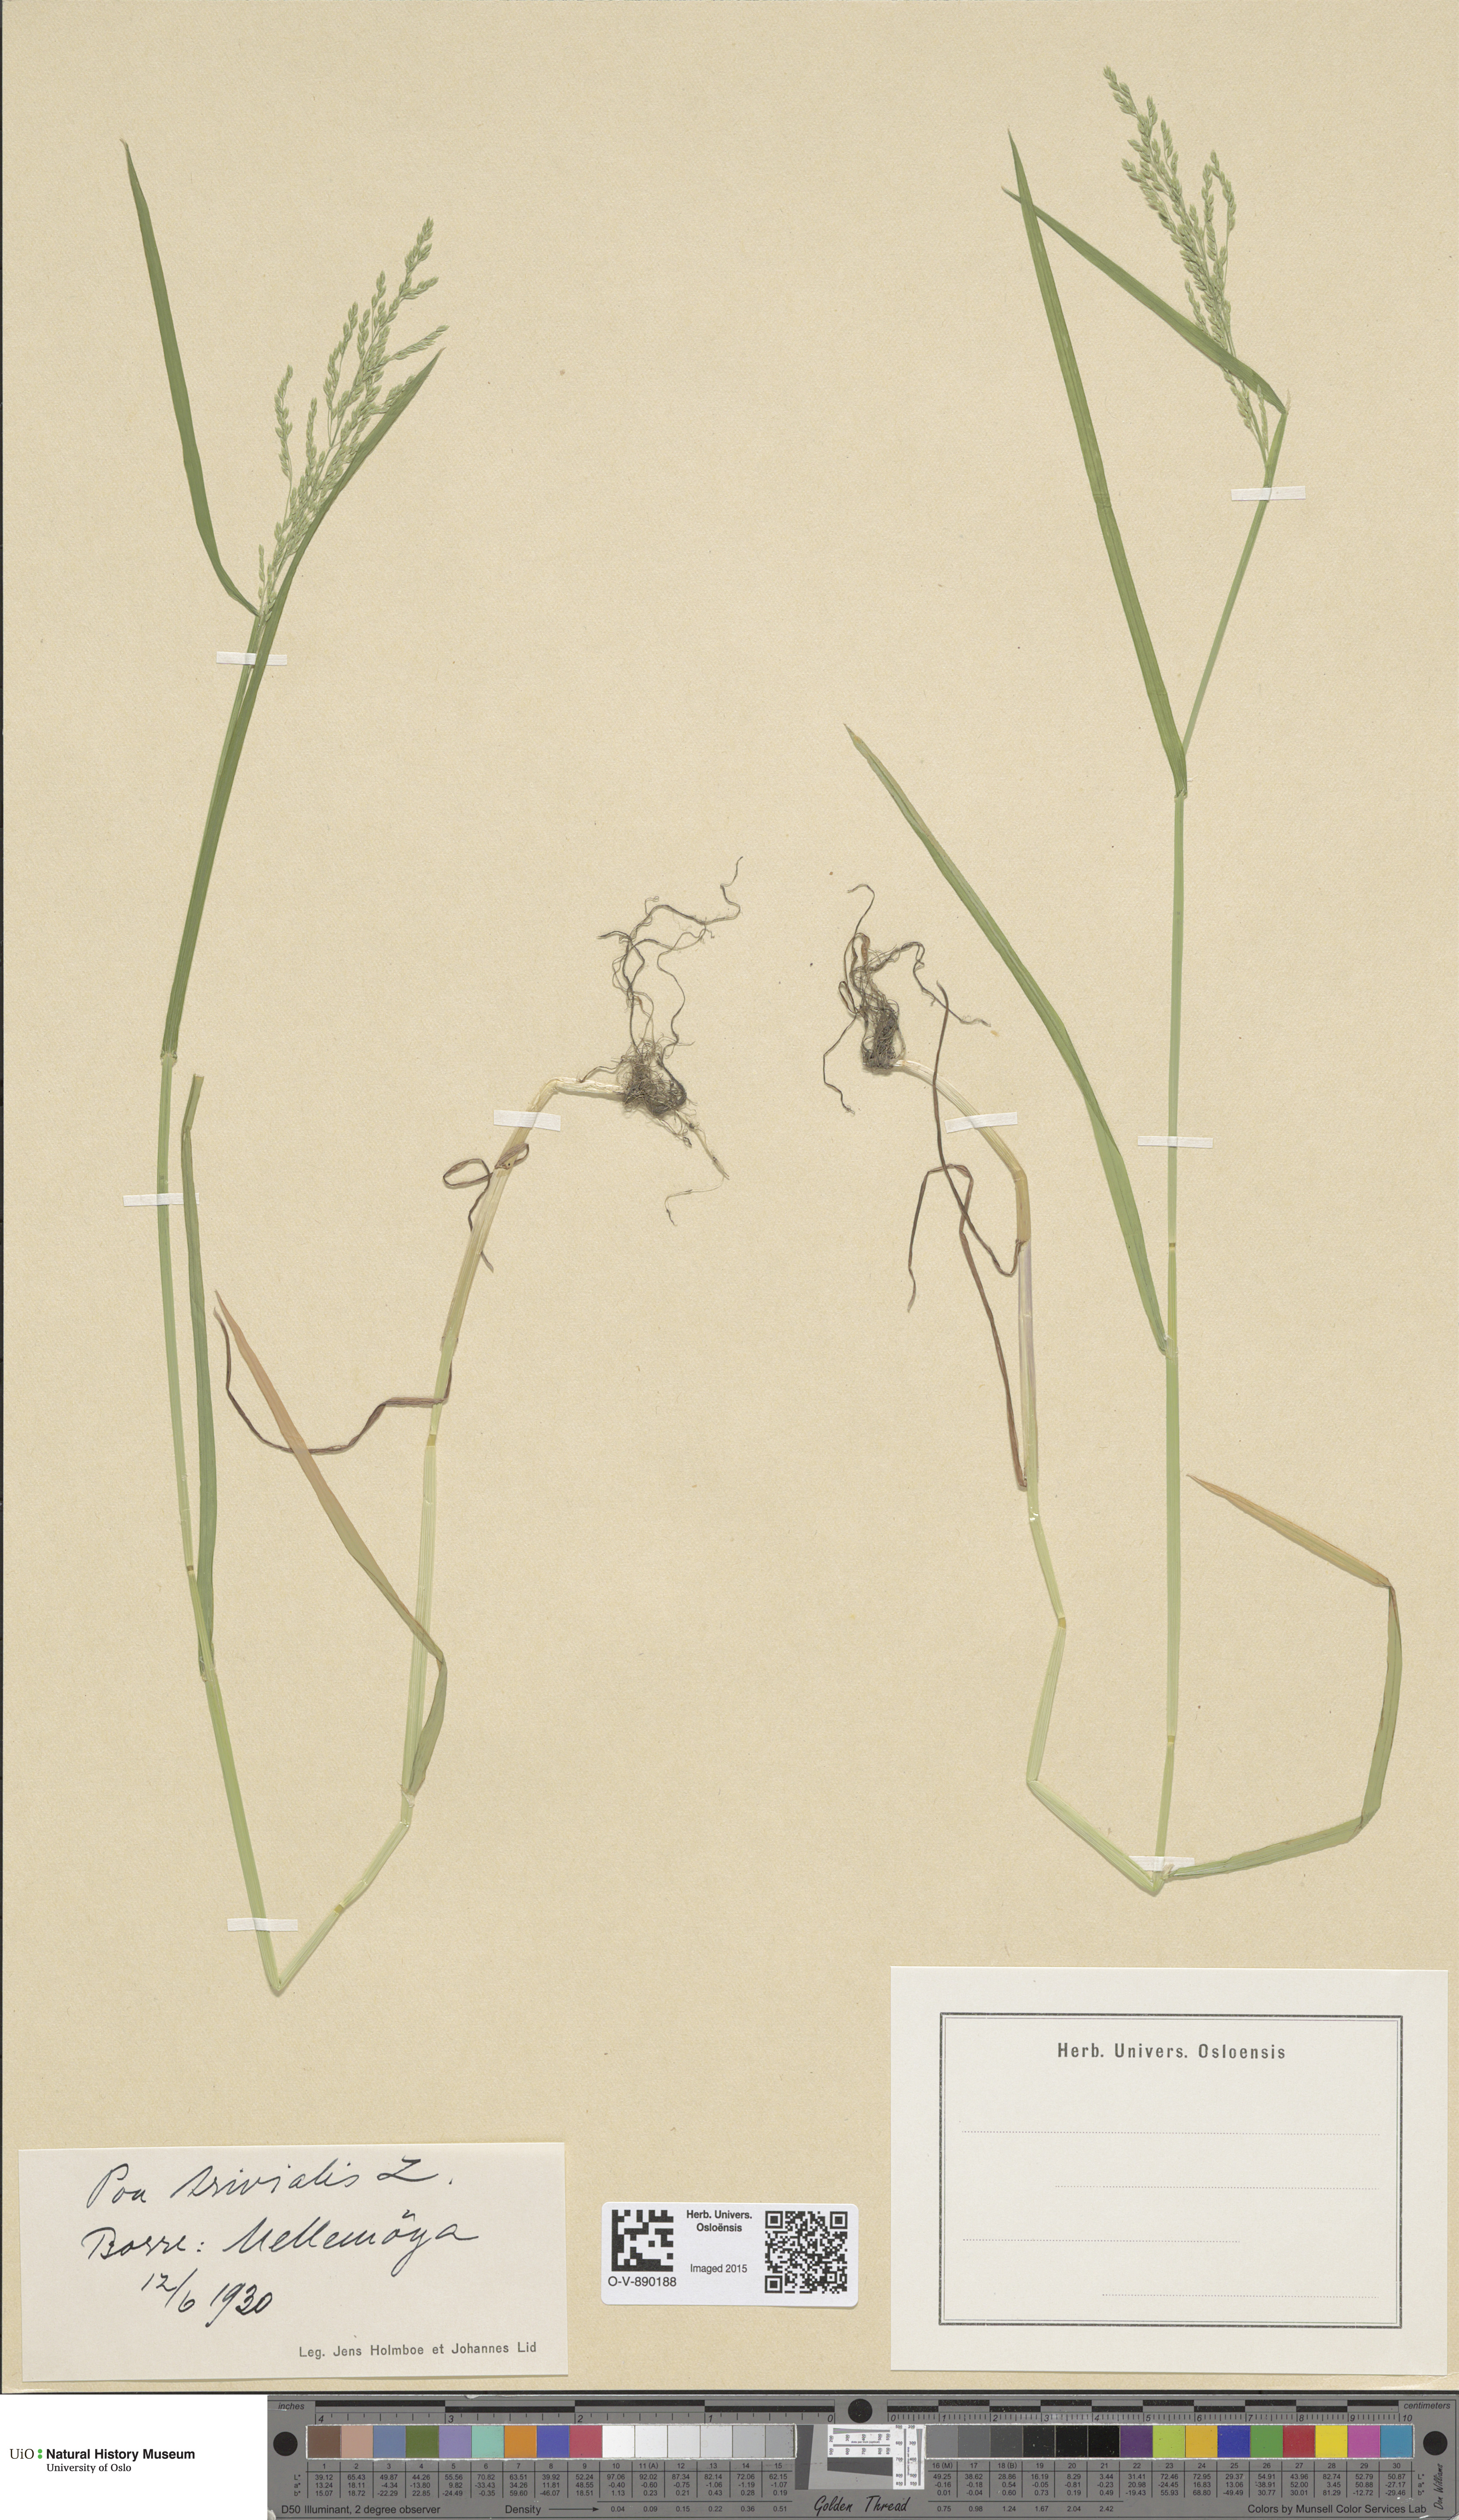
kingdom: Plantae
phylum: Tracheophyta
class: Liliopsida
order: Poales
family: Poaceae
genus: Poa
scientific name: Poa trivialis
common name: Rough bluegrass
